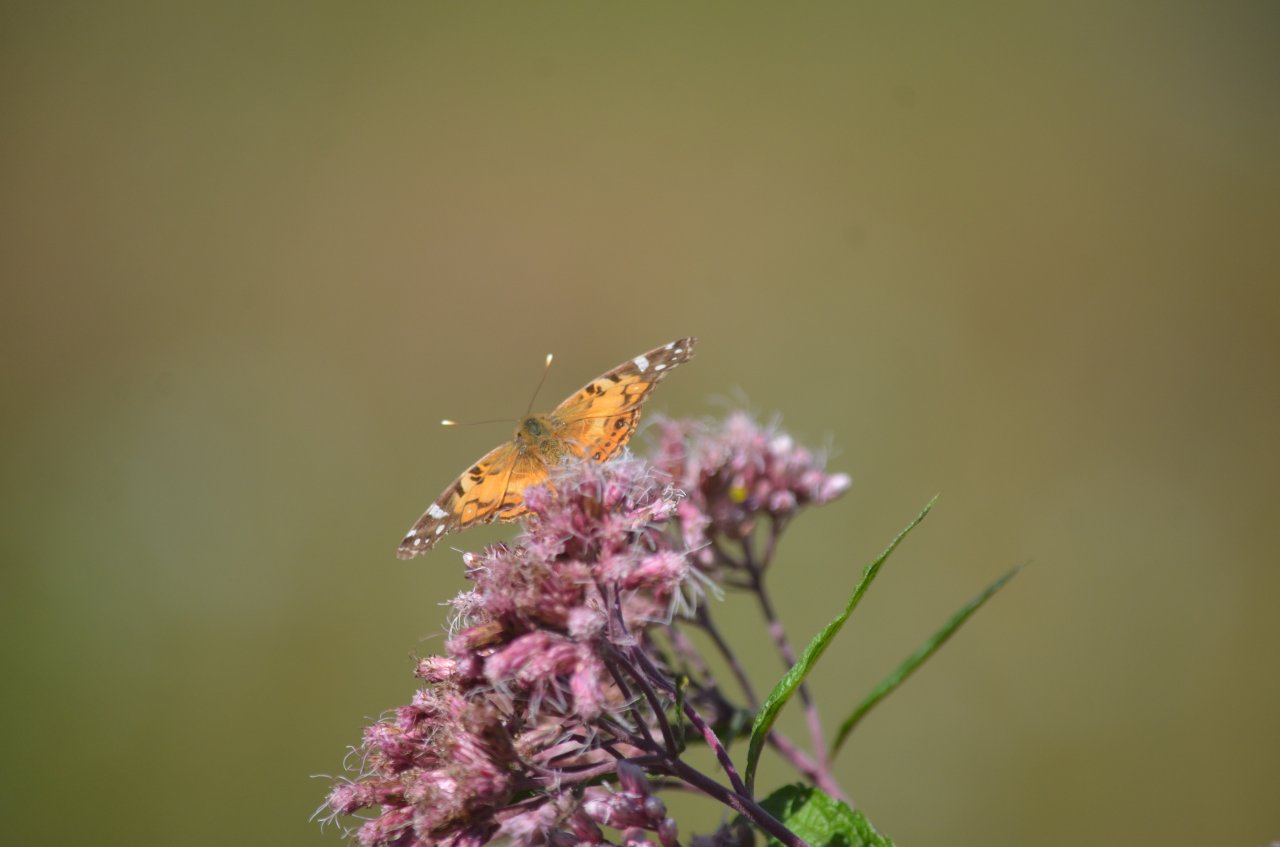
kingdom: Animalia
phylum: Arthropoda
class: Insecta
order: Lepidoptera
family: Nymphalidae
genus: Vanessa
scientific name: Vanessa virginiensis
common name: American Lady
